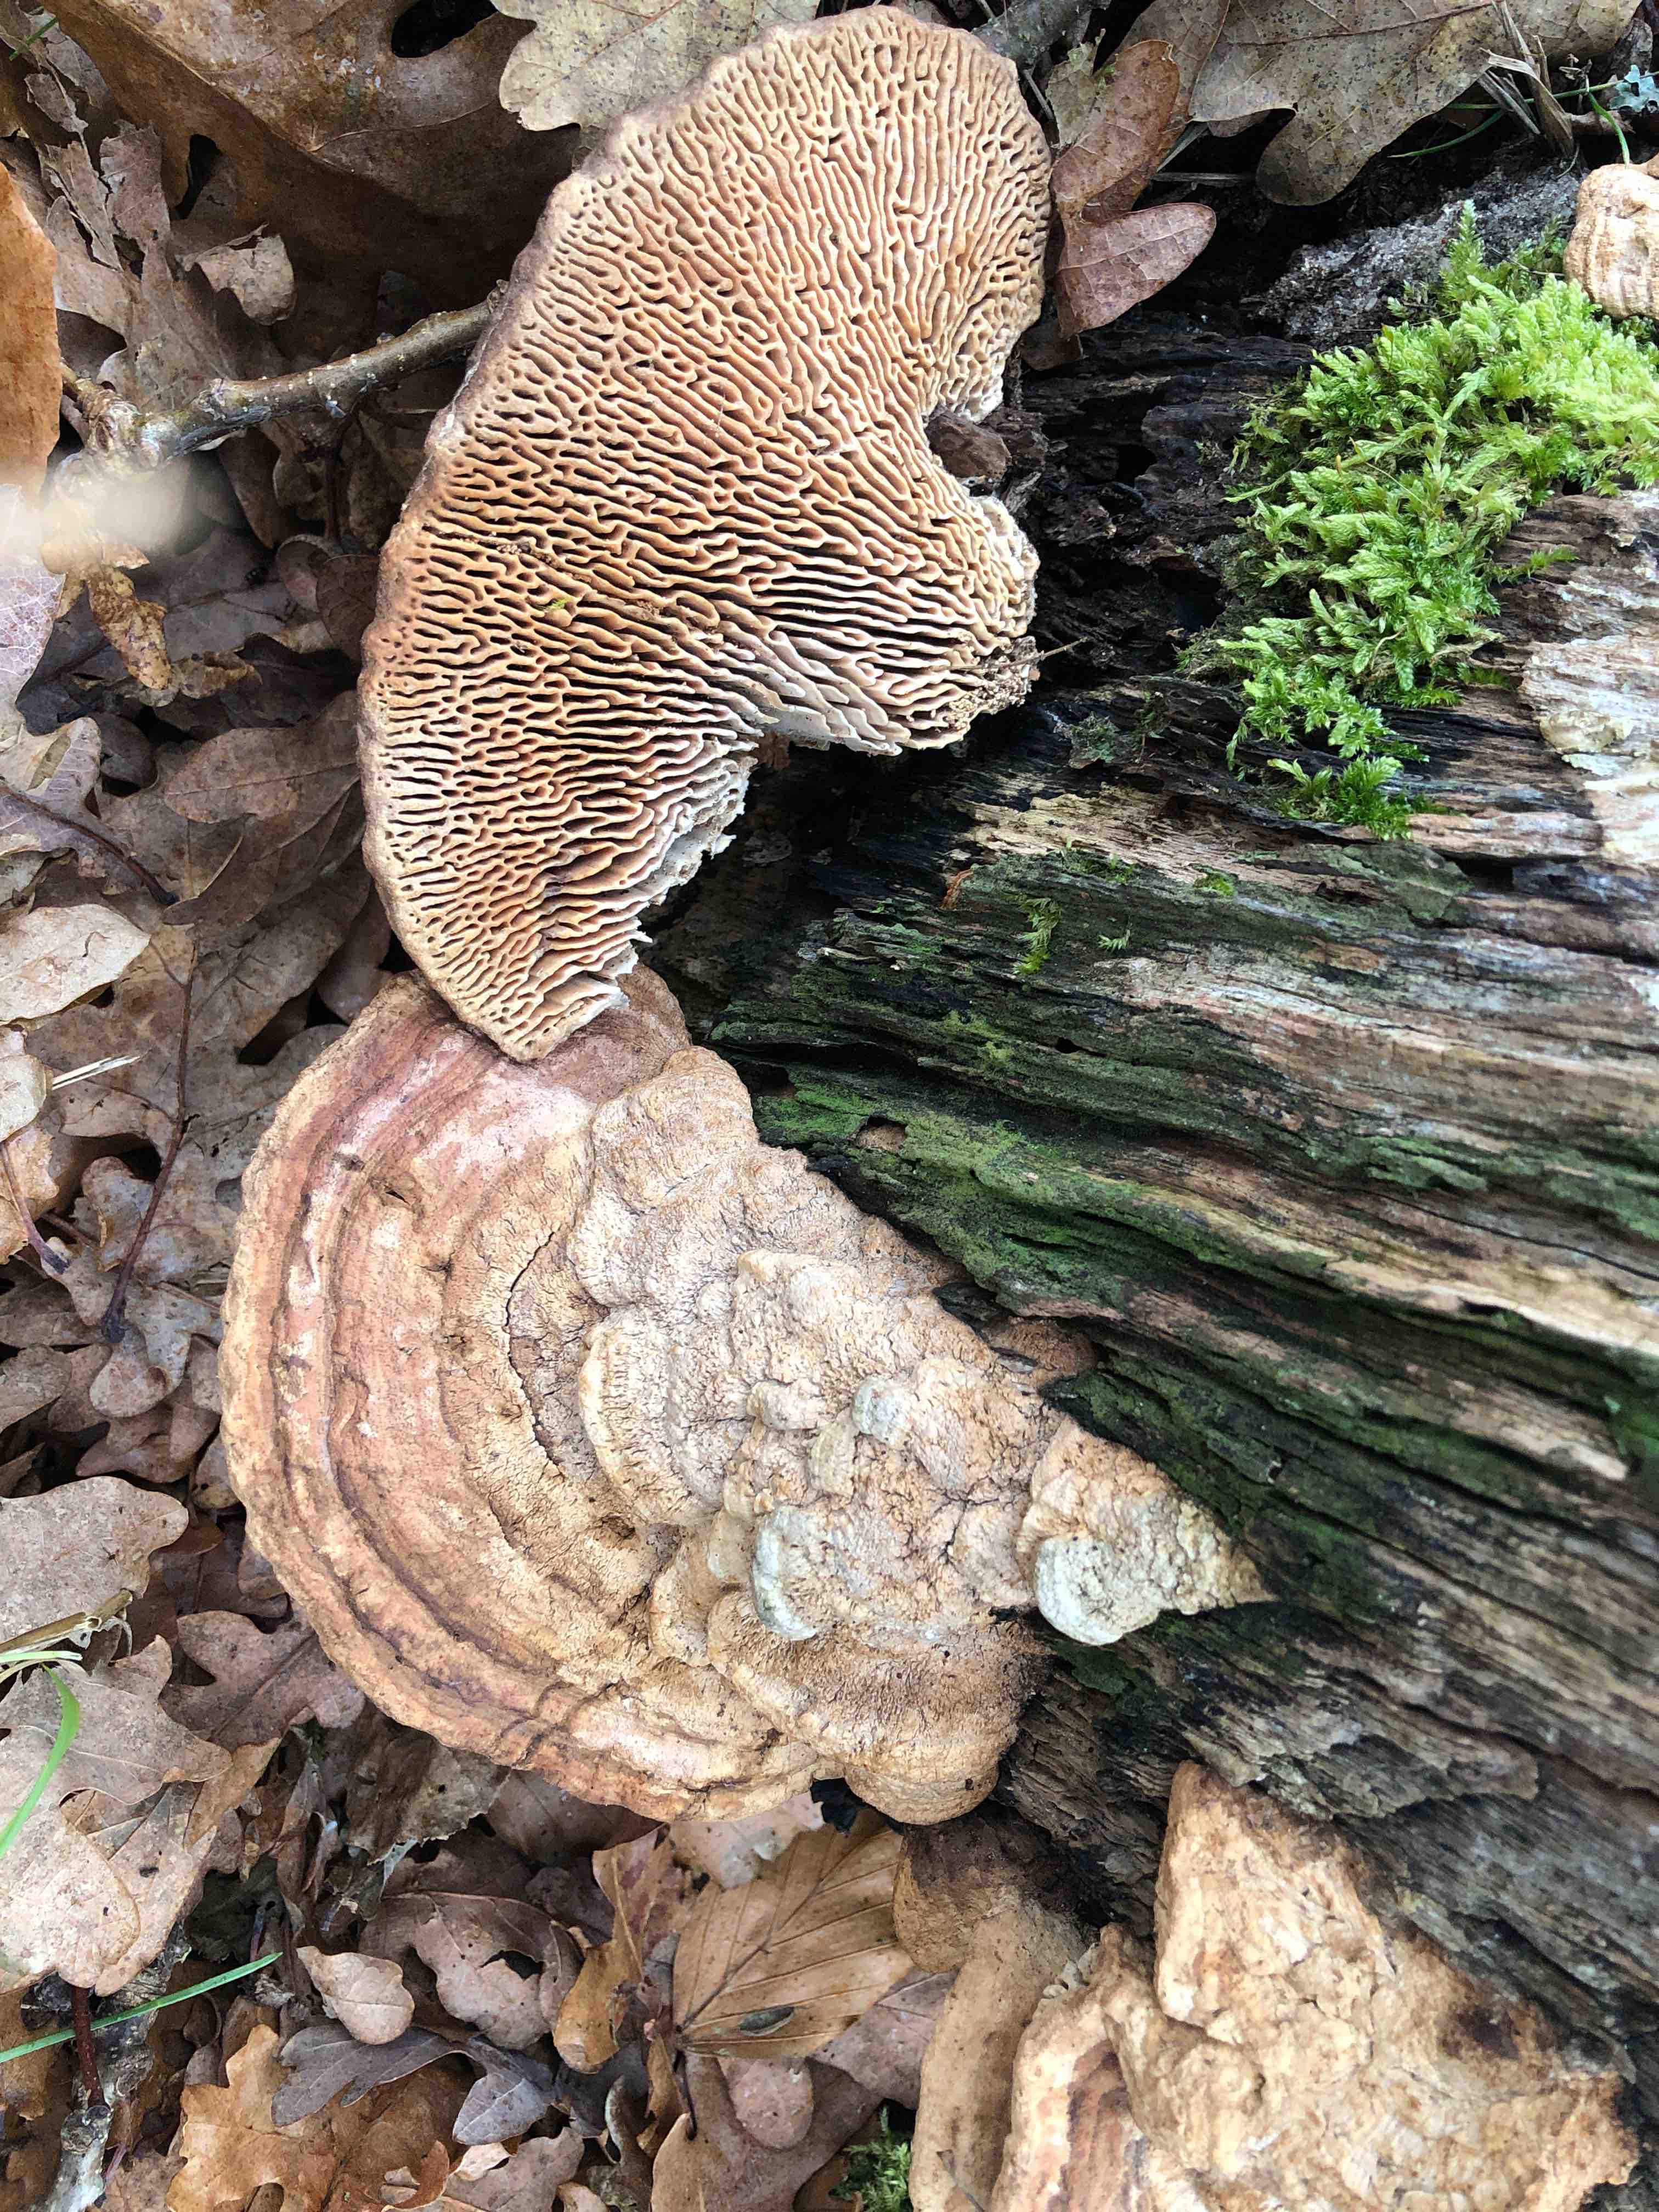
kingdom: Fungi
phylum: Basidiomycota
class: Agaricomycetes
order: Polyporales
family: Fomitopsidaceae
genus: Daedalea
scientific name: Daedalea quercina
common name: ege-labyrintsvamp
